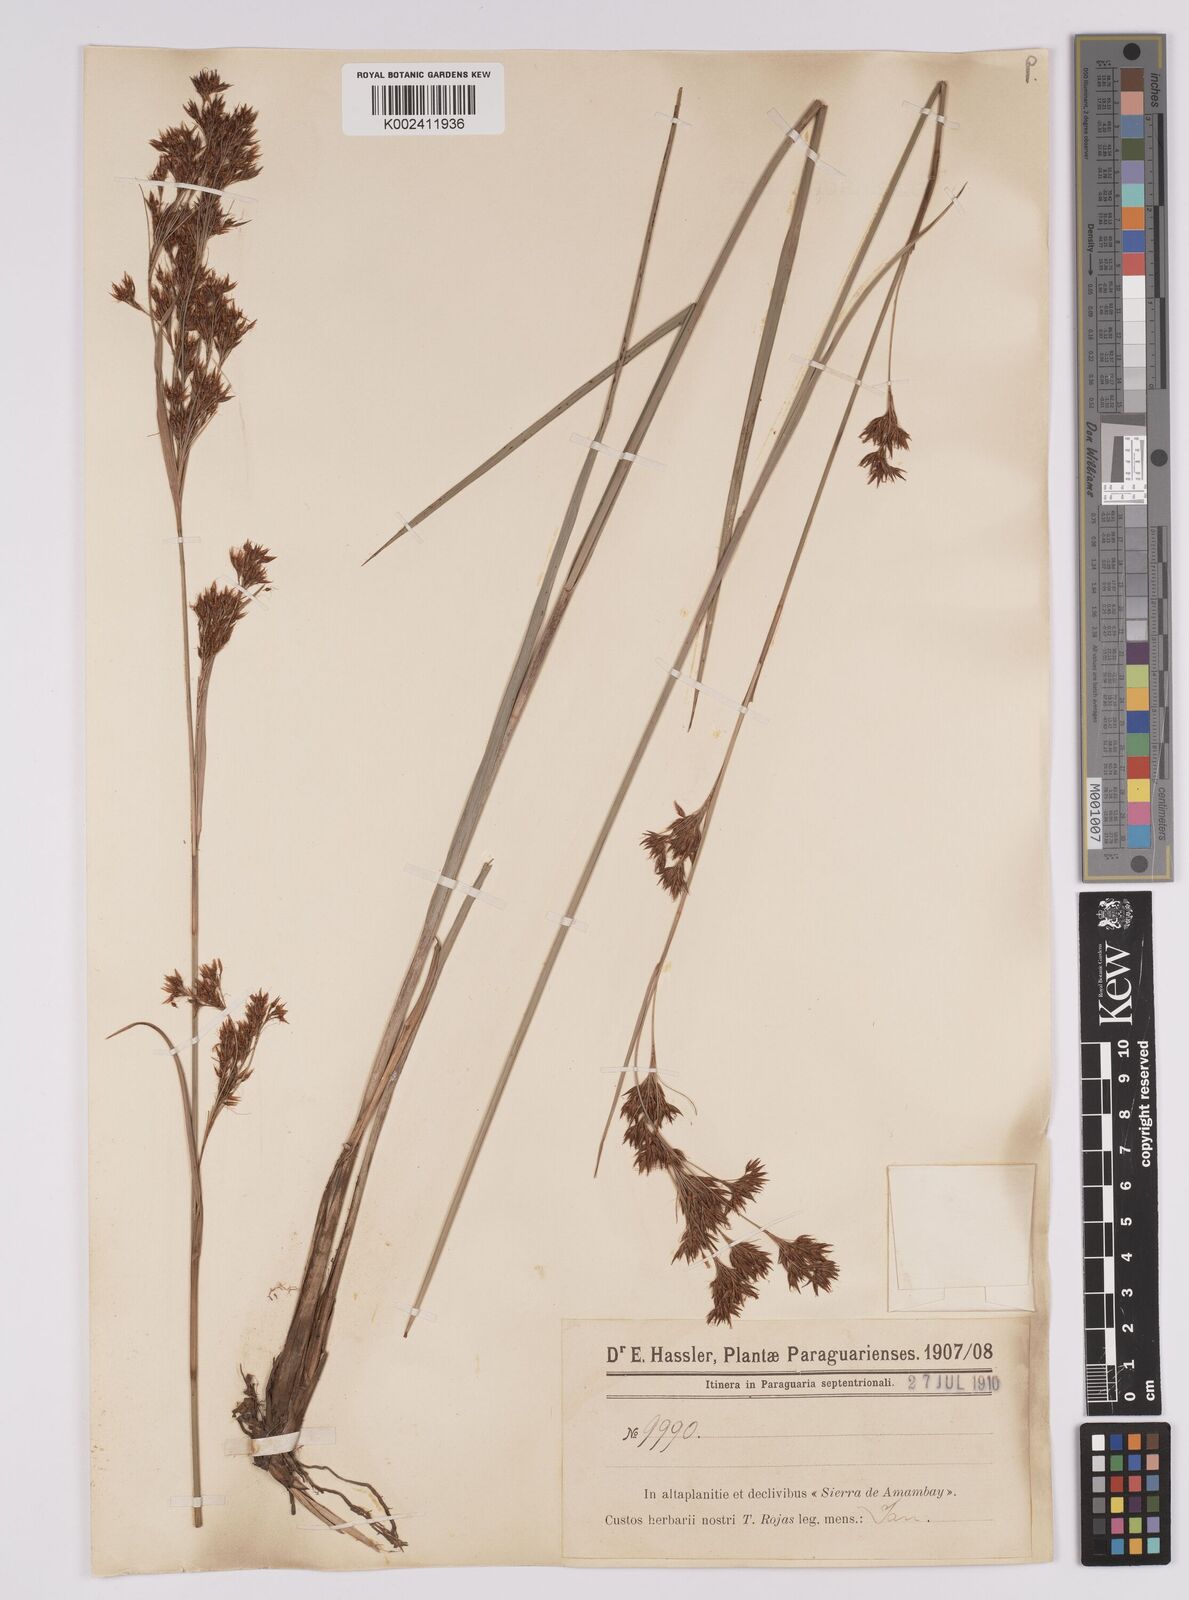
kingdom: Plantae
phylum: Tracheophyta
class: Liliopsida
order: Poales
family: Cyperaceae
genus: Rhynchospora
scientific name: Rhynchospora marisculus
